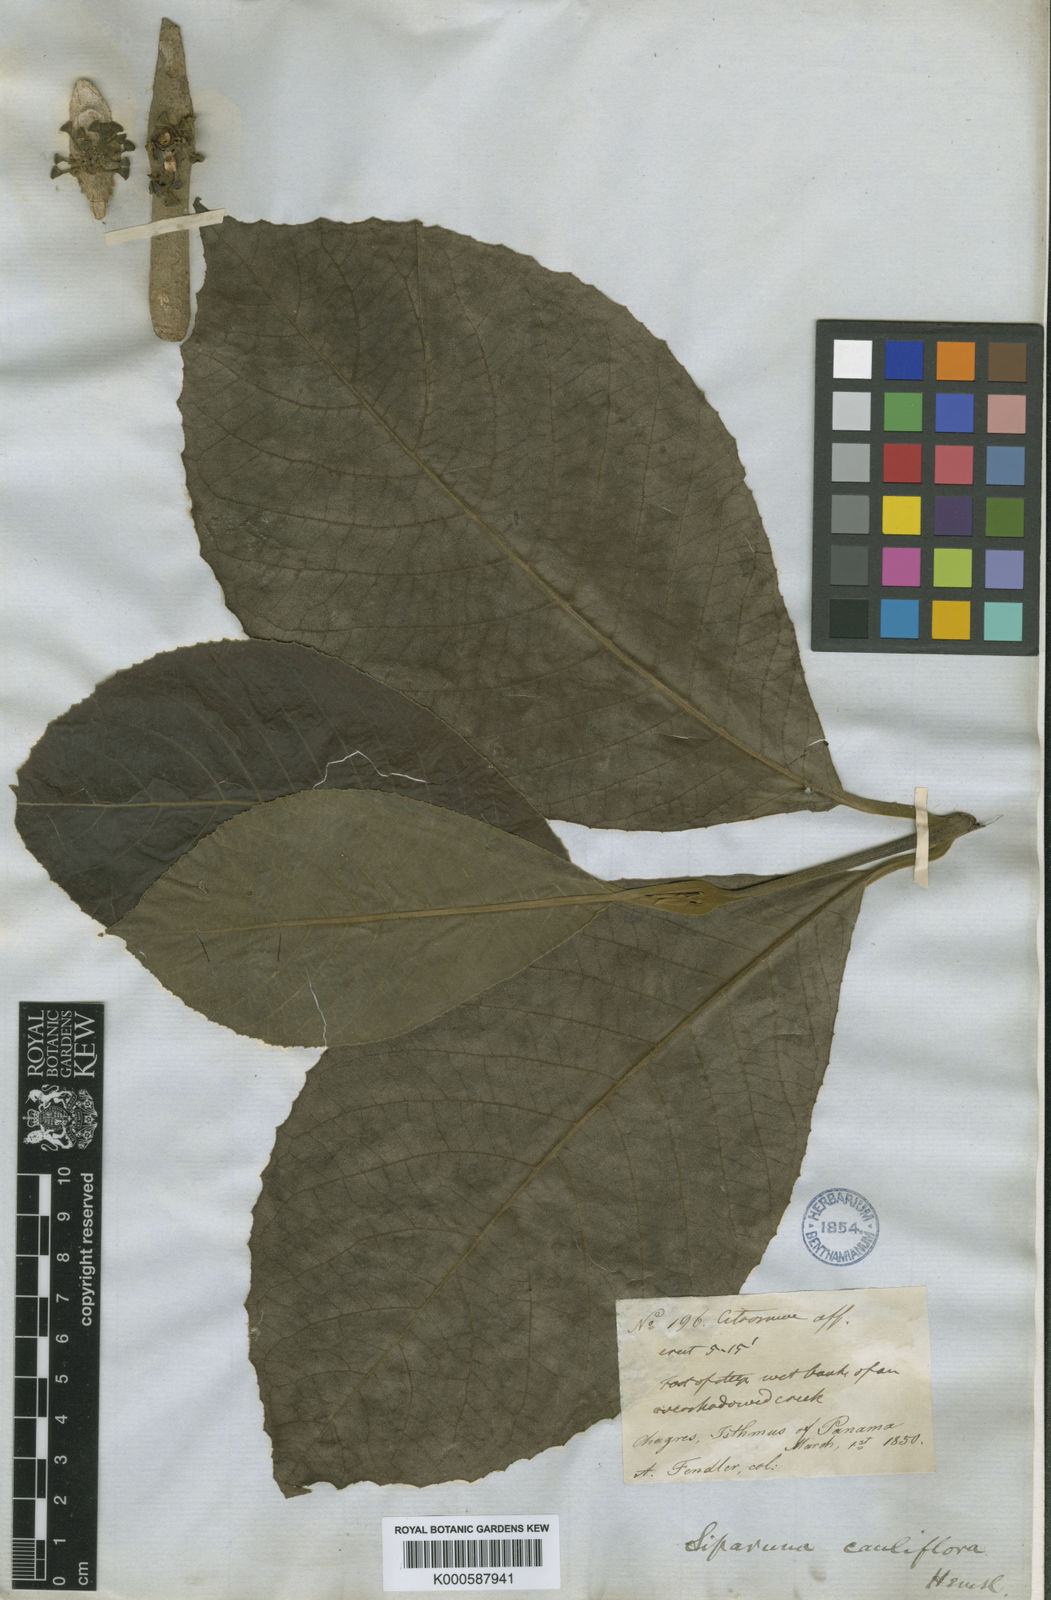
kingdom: Plantae
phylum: Tracheophyta
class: Magnoliopsida
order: Laurales
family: Siparunaceae
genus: Siparuna
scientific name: Siparuna pauciflora
